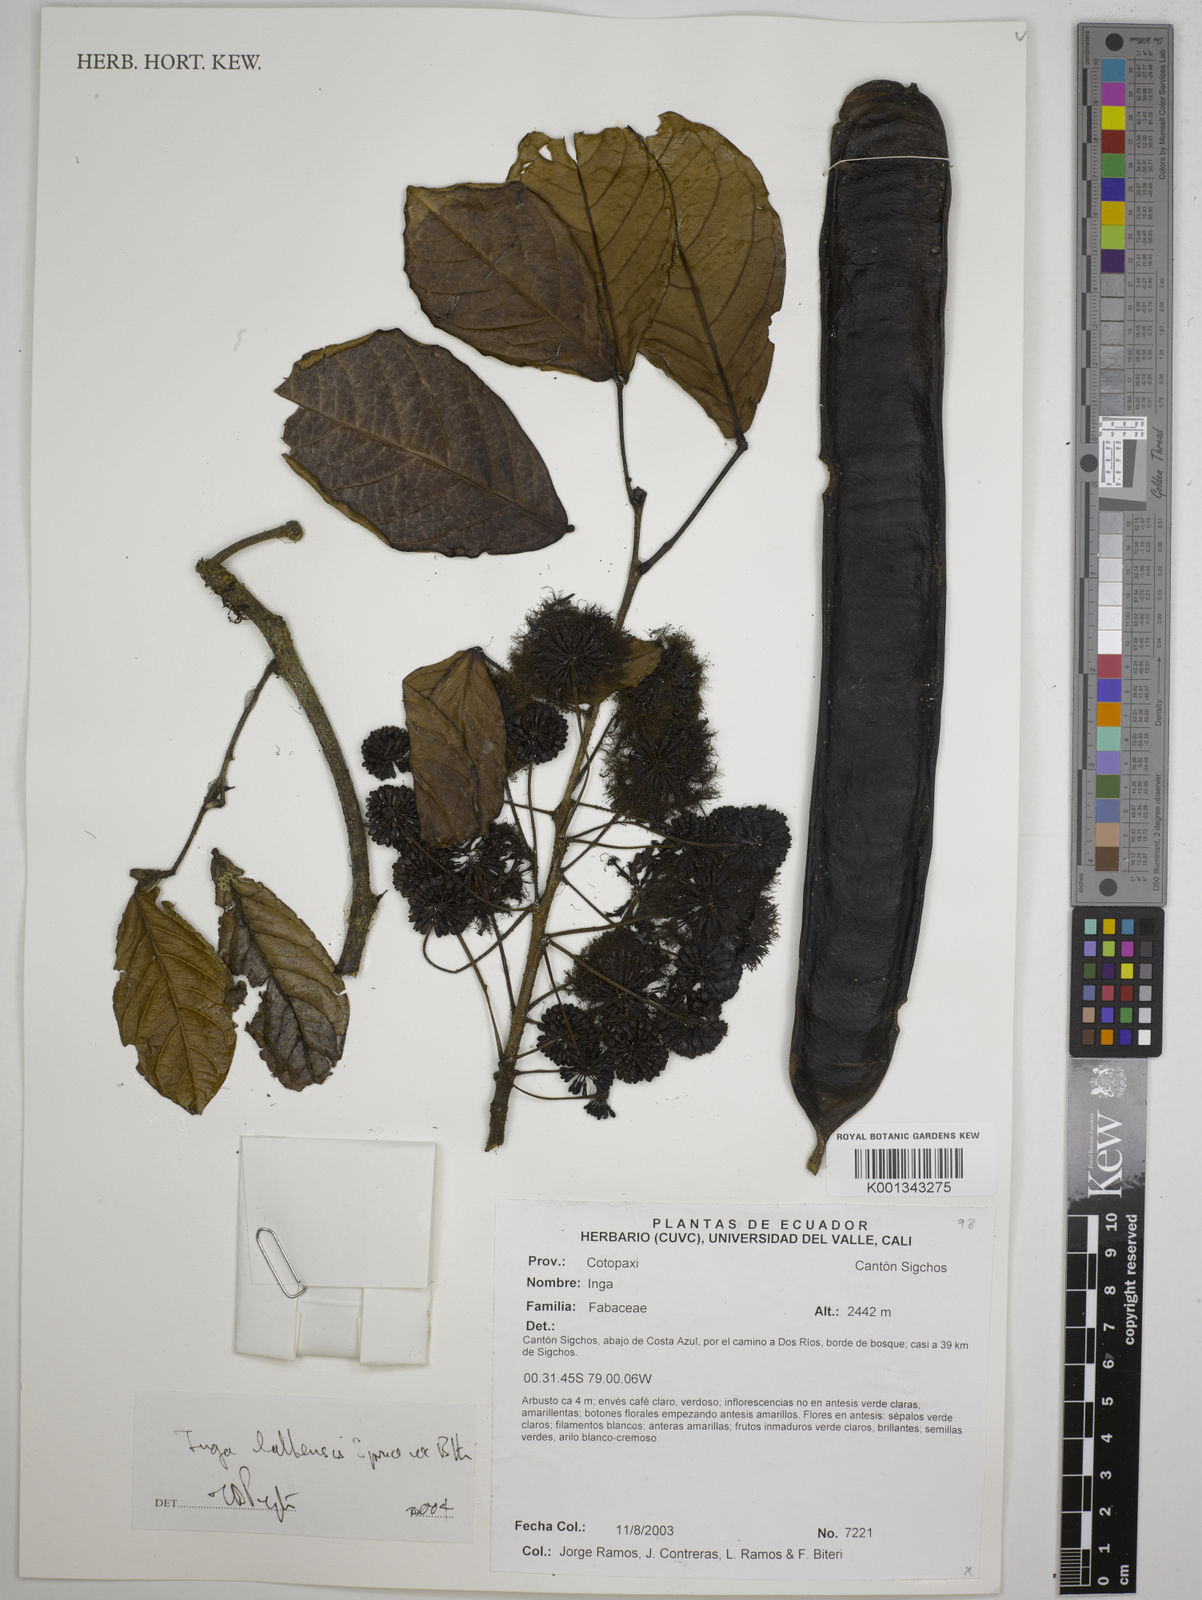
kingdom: Plantae
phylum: Tracheophyta
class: Magnoliopsida
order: Fabales
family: Fabaceae
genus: Inga
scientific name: Inga lallensis
